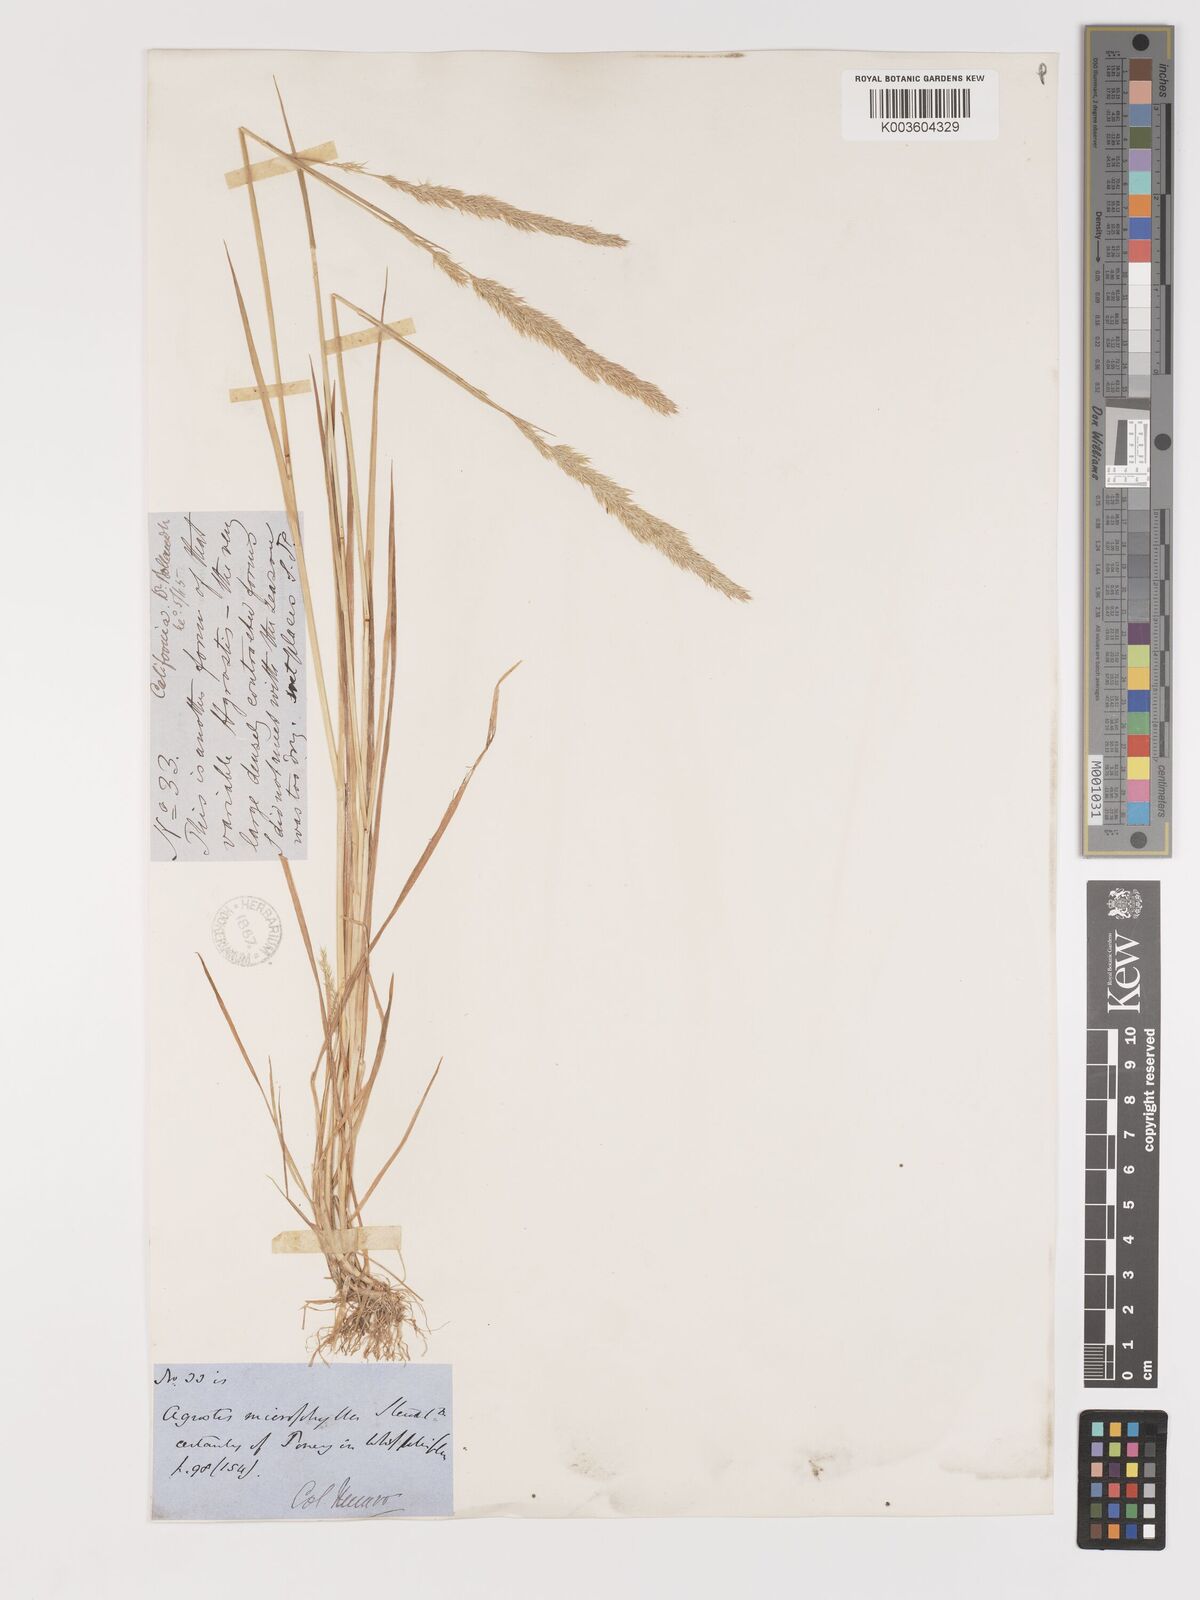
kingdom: Plantae
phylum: Tracheophyta
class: Liliopsida
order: Poales
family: Poaceae
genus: Agrostis
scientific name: Agrostis exarata
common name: Spike bent
